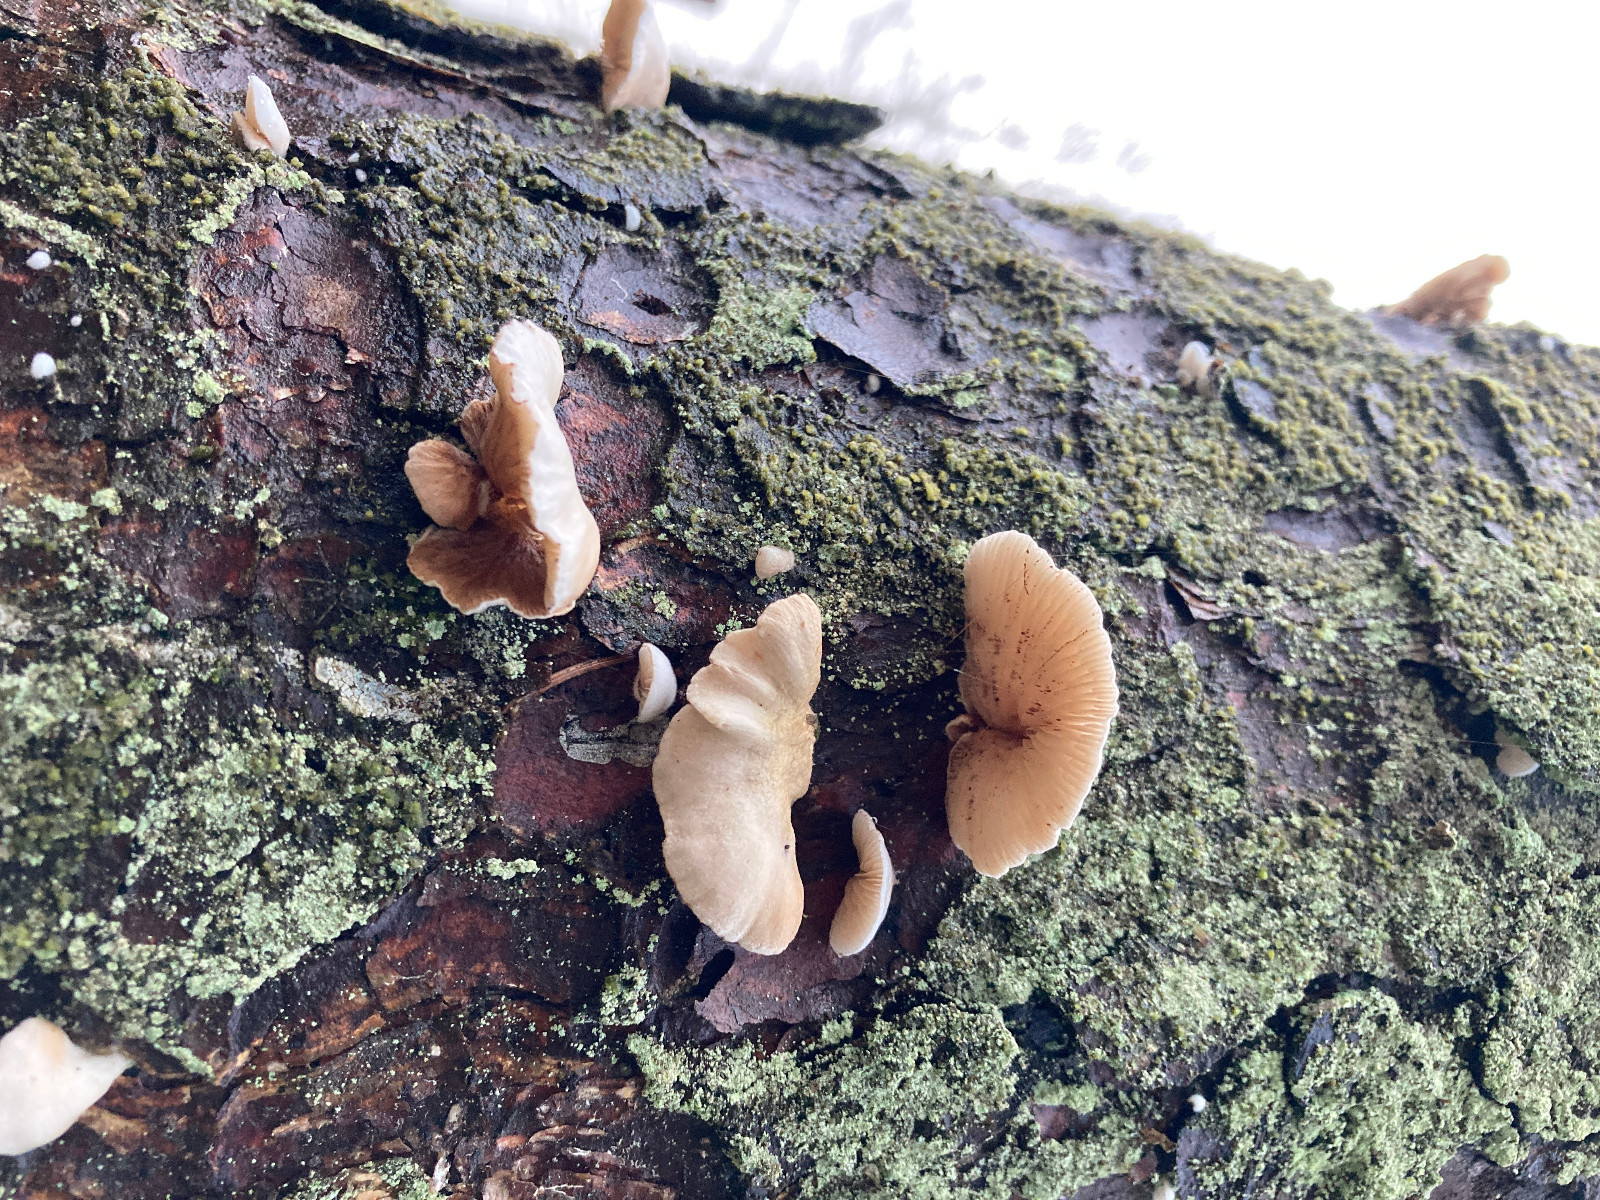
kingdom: Fungi
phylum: Basidiomycota
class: Agaricomycetes
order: Agaricales
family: Crepidotaceae
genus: Crepidotus
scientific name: Crepidotus
